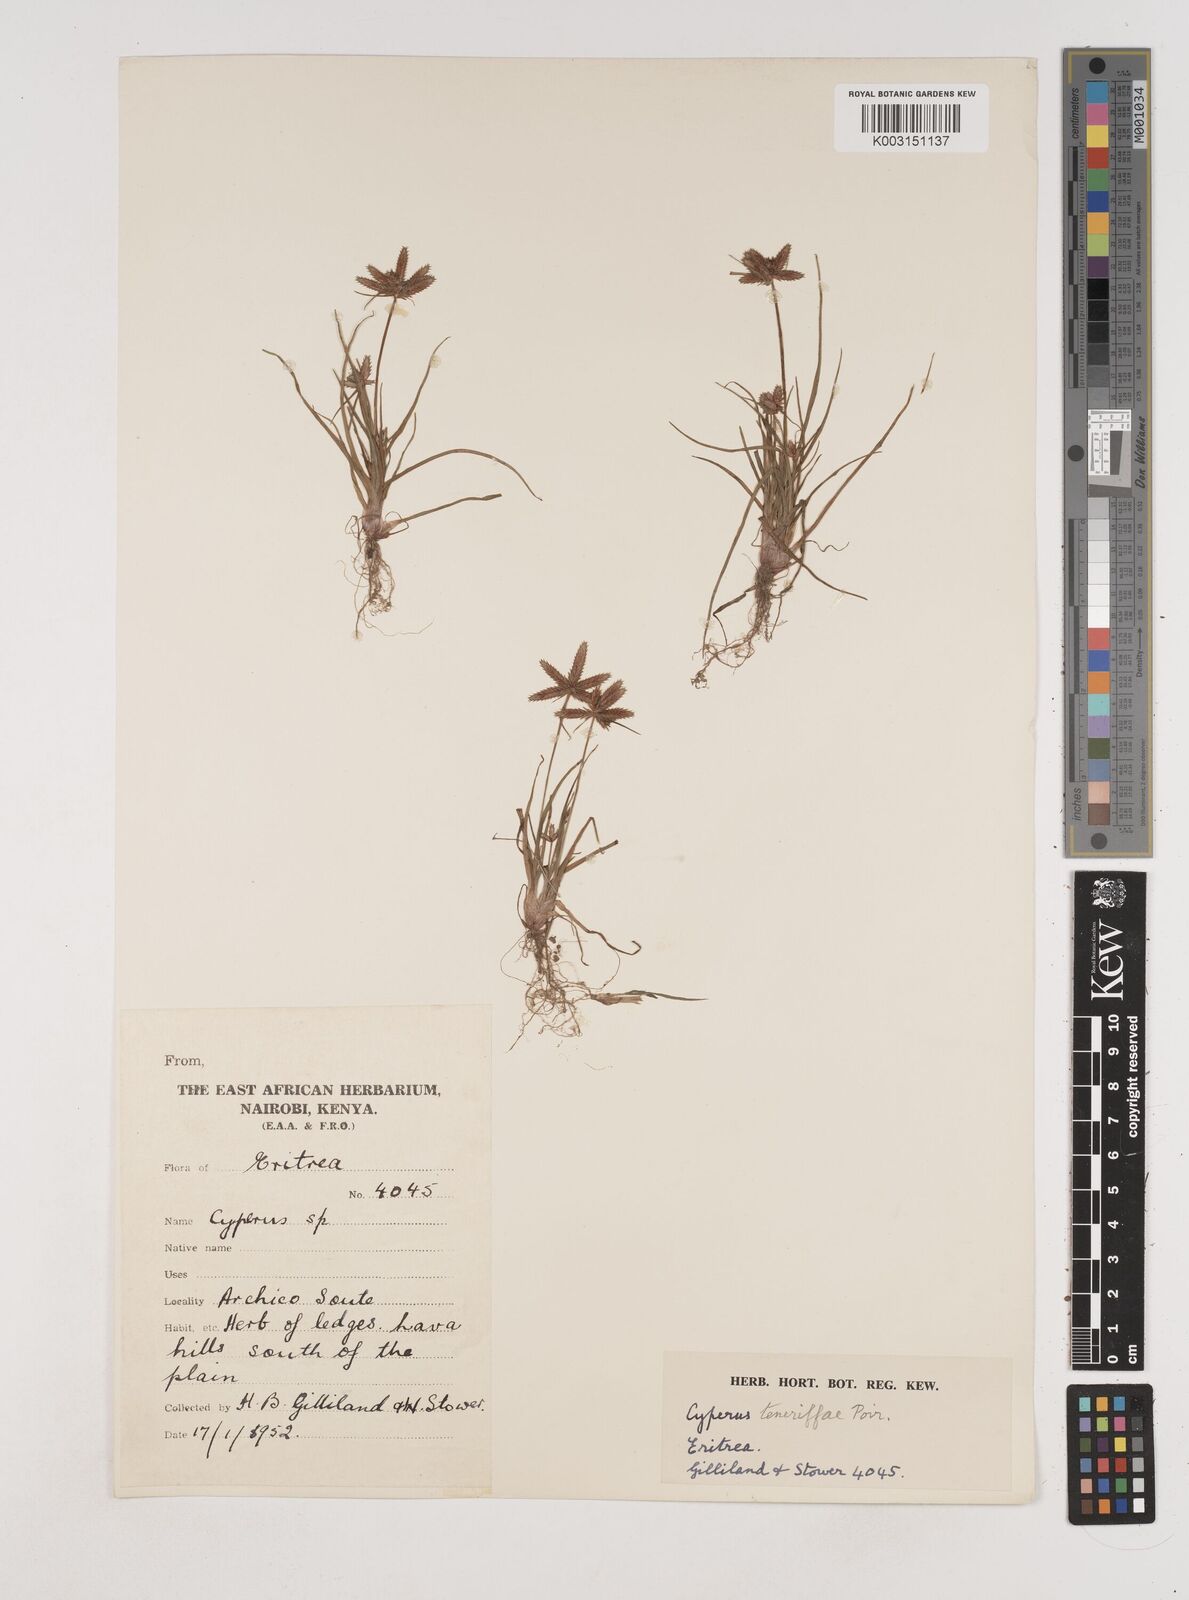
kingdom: Plantae
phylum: Tracheophyta
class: Liliopsida
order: Poales
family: Cyperaceae
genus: Cyperus
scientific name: Cyperus rubicundus
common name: Coco-grass
